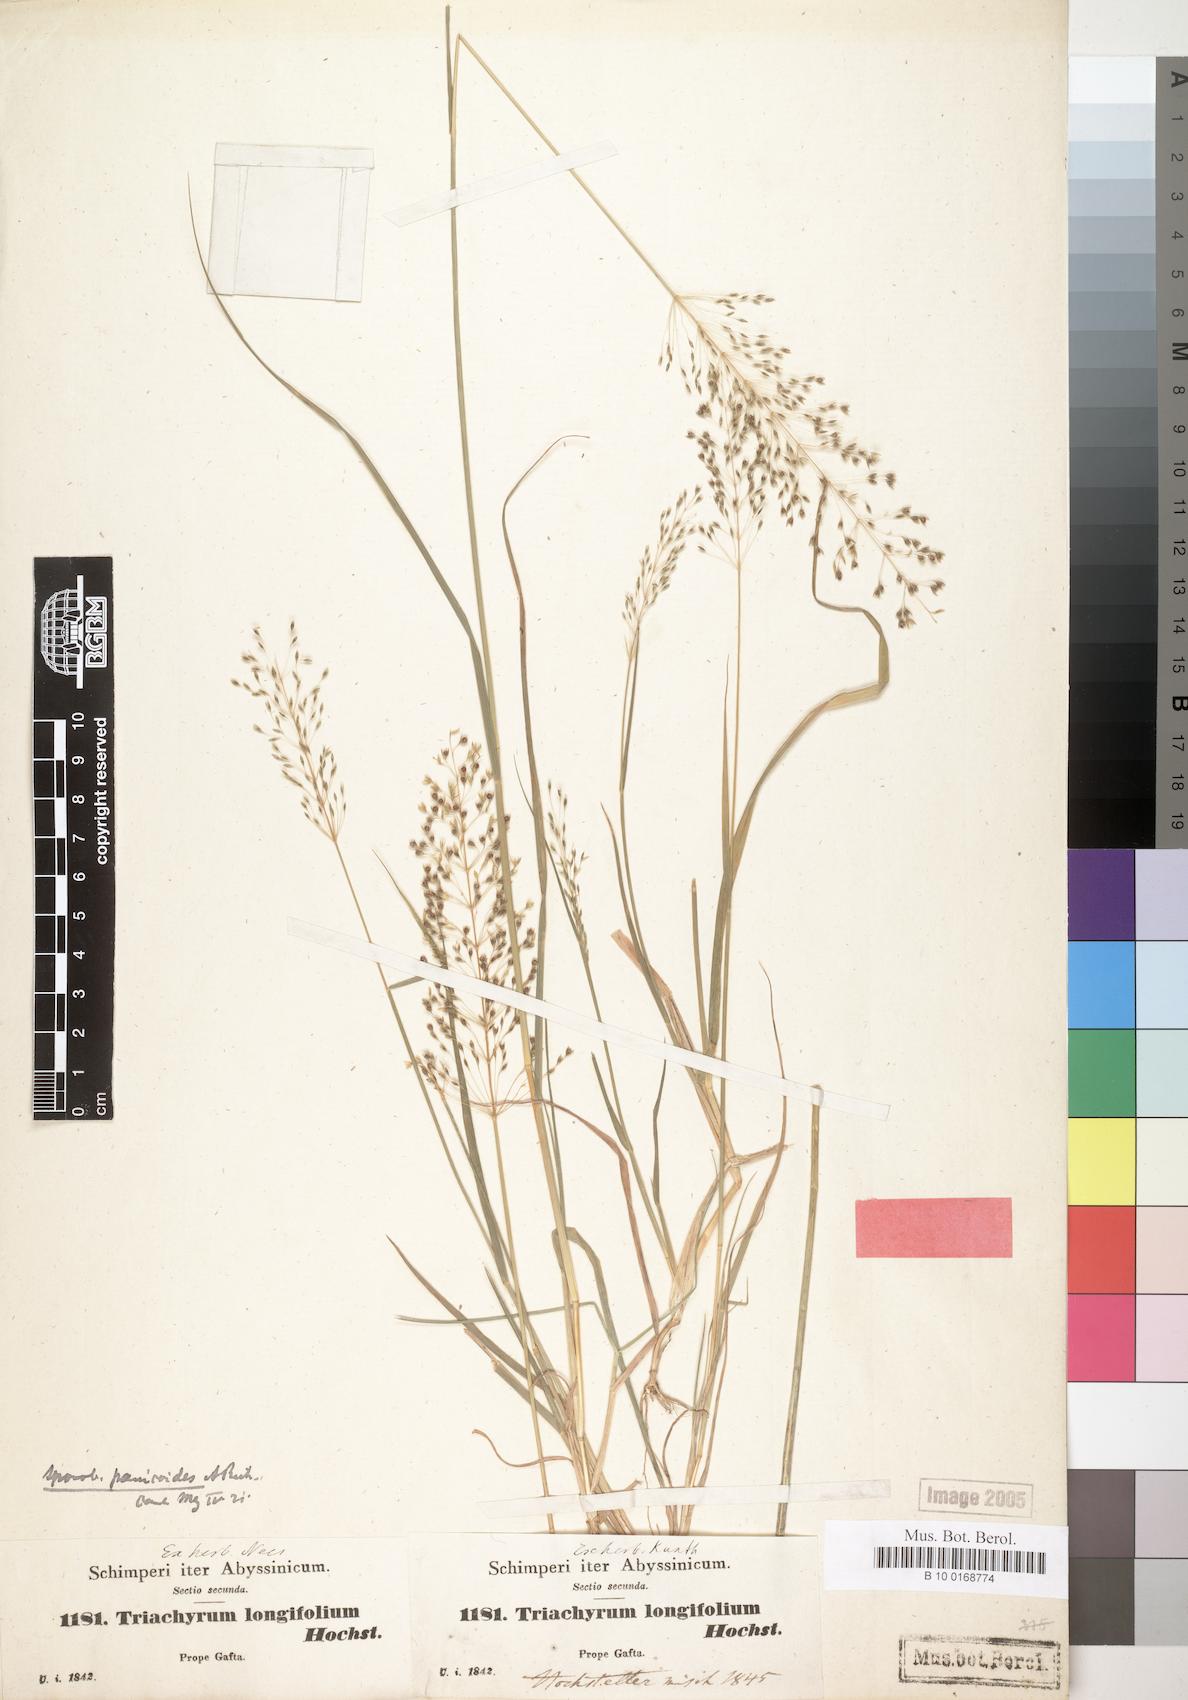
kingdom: Plantae
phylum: Tracheophyta
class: Liliopsida
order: Poales
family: Poaceae
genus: Sporobolus
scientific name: Sporobolus panicoides
